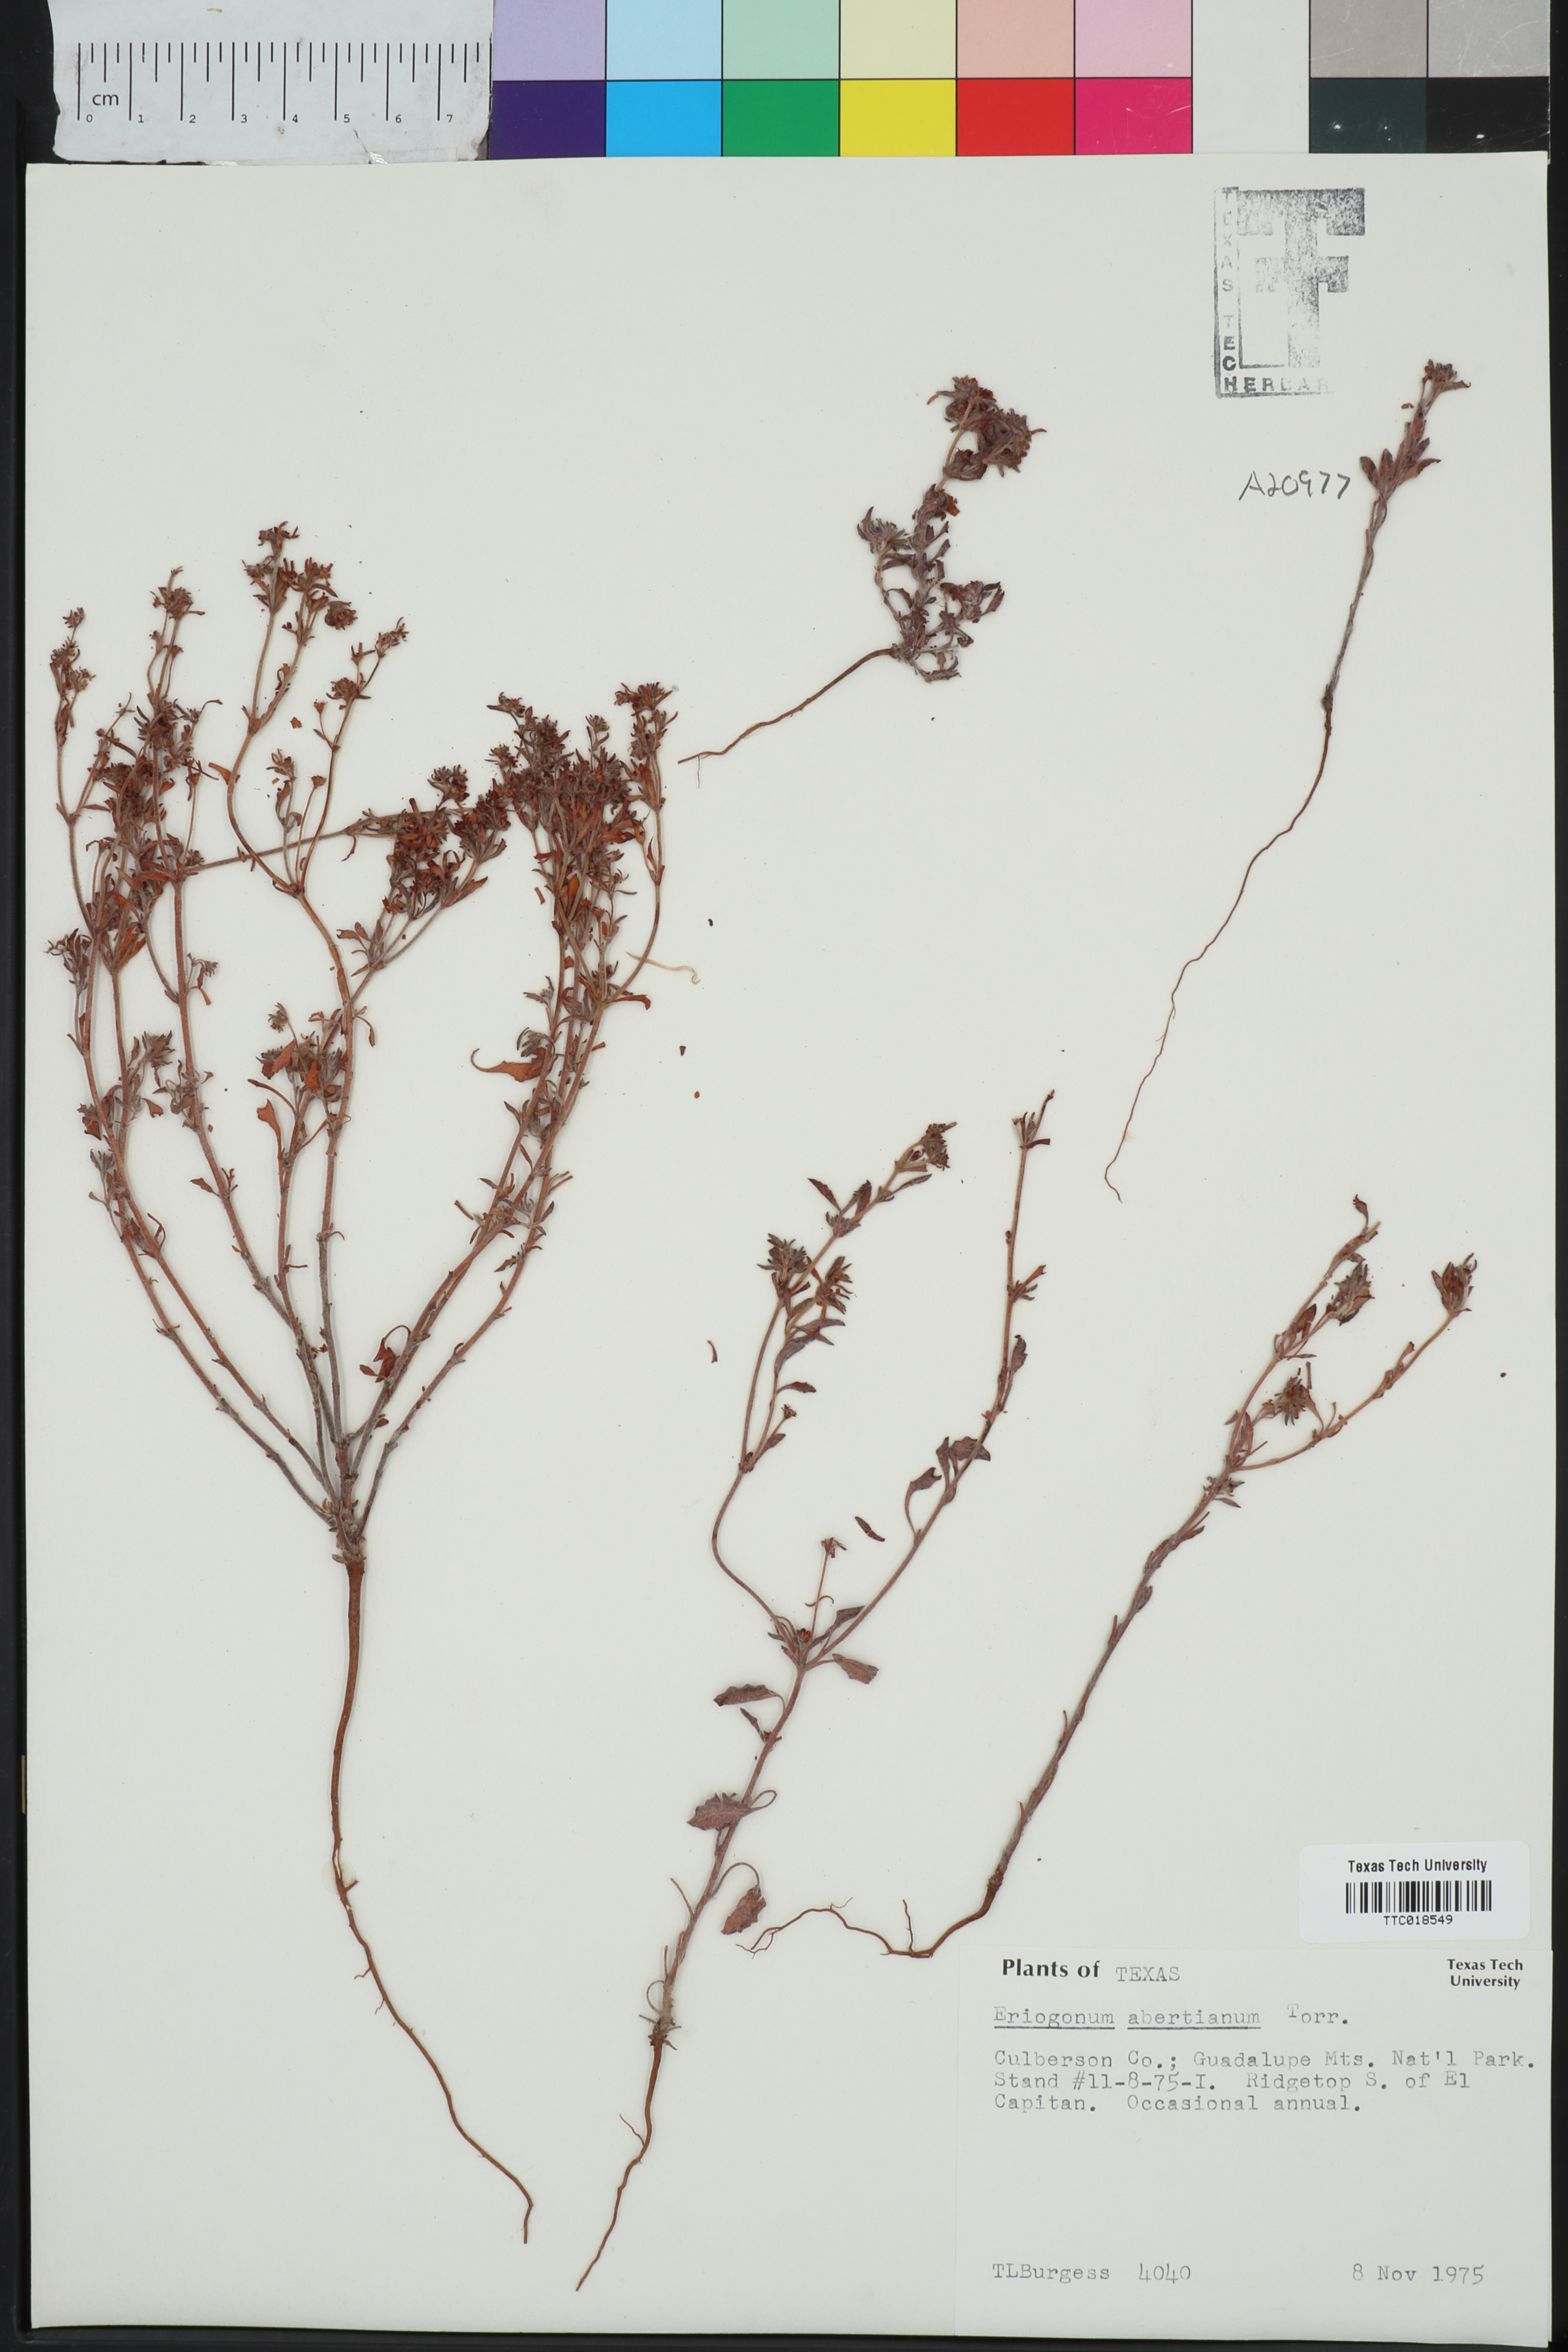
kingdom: Plantae
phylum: Tracheophyta
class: Magnoliopsida
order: Caryophyllales
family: Polygonaceae
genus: Eriogonum
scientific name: Eriogonum abertianum
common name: Abert's wild buckwheat
